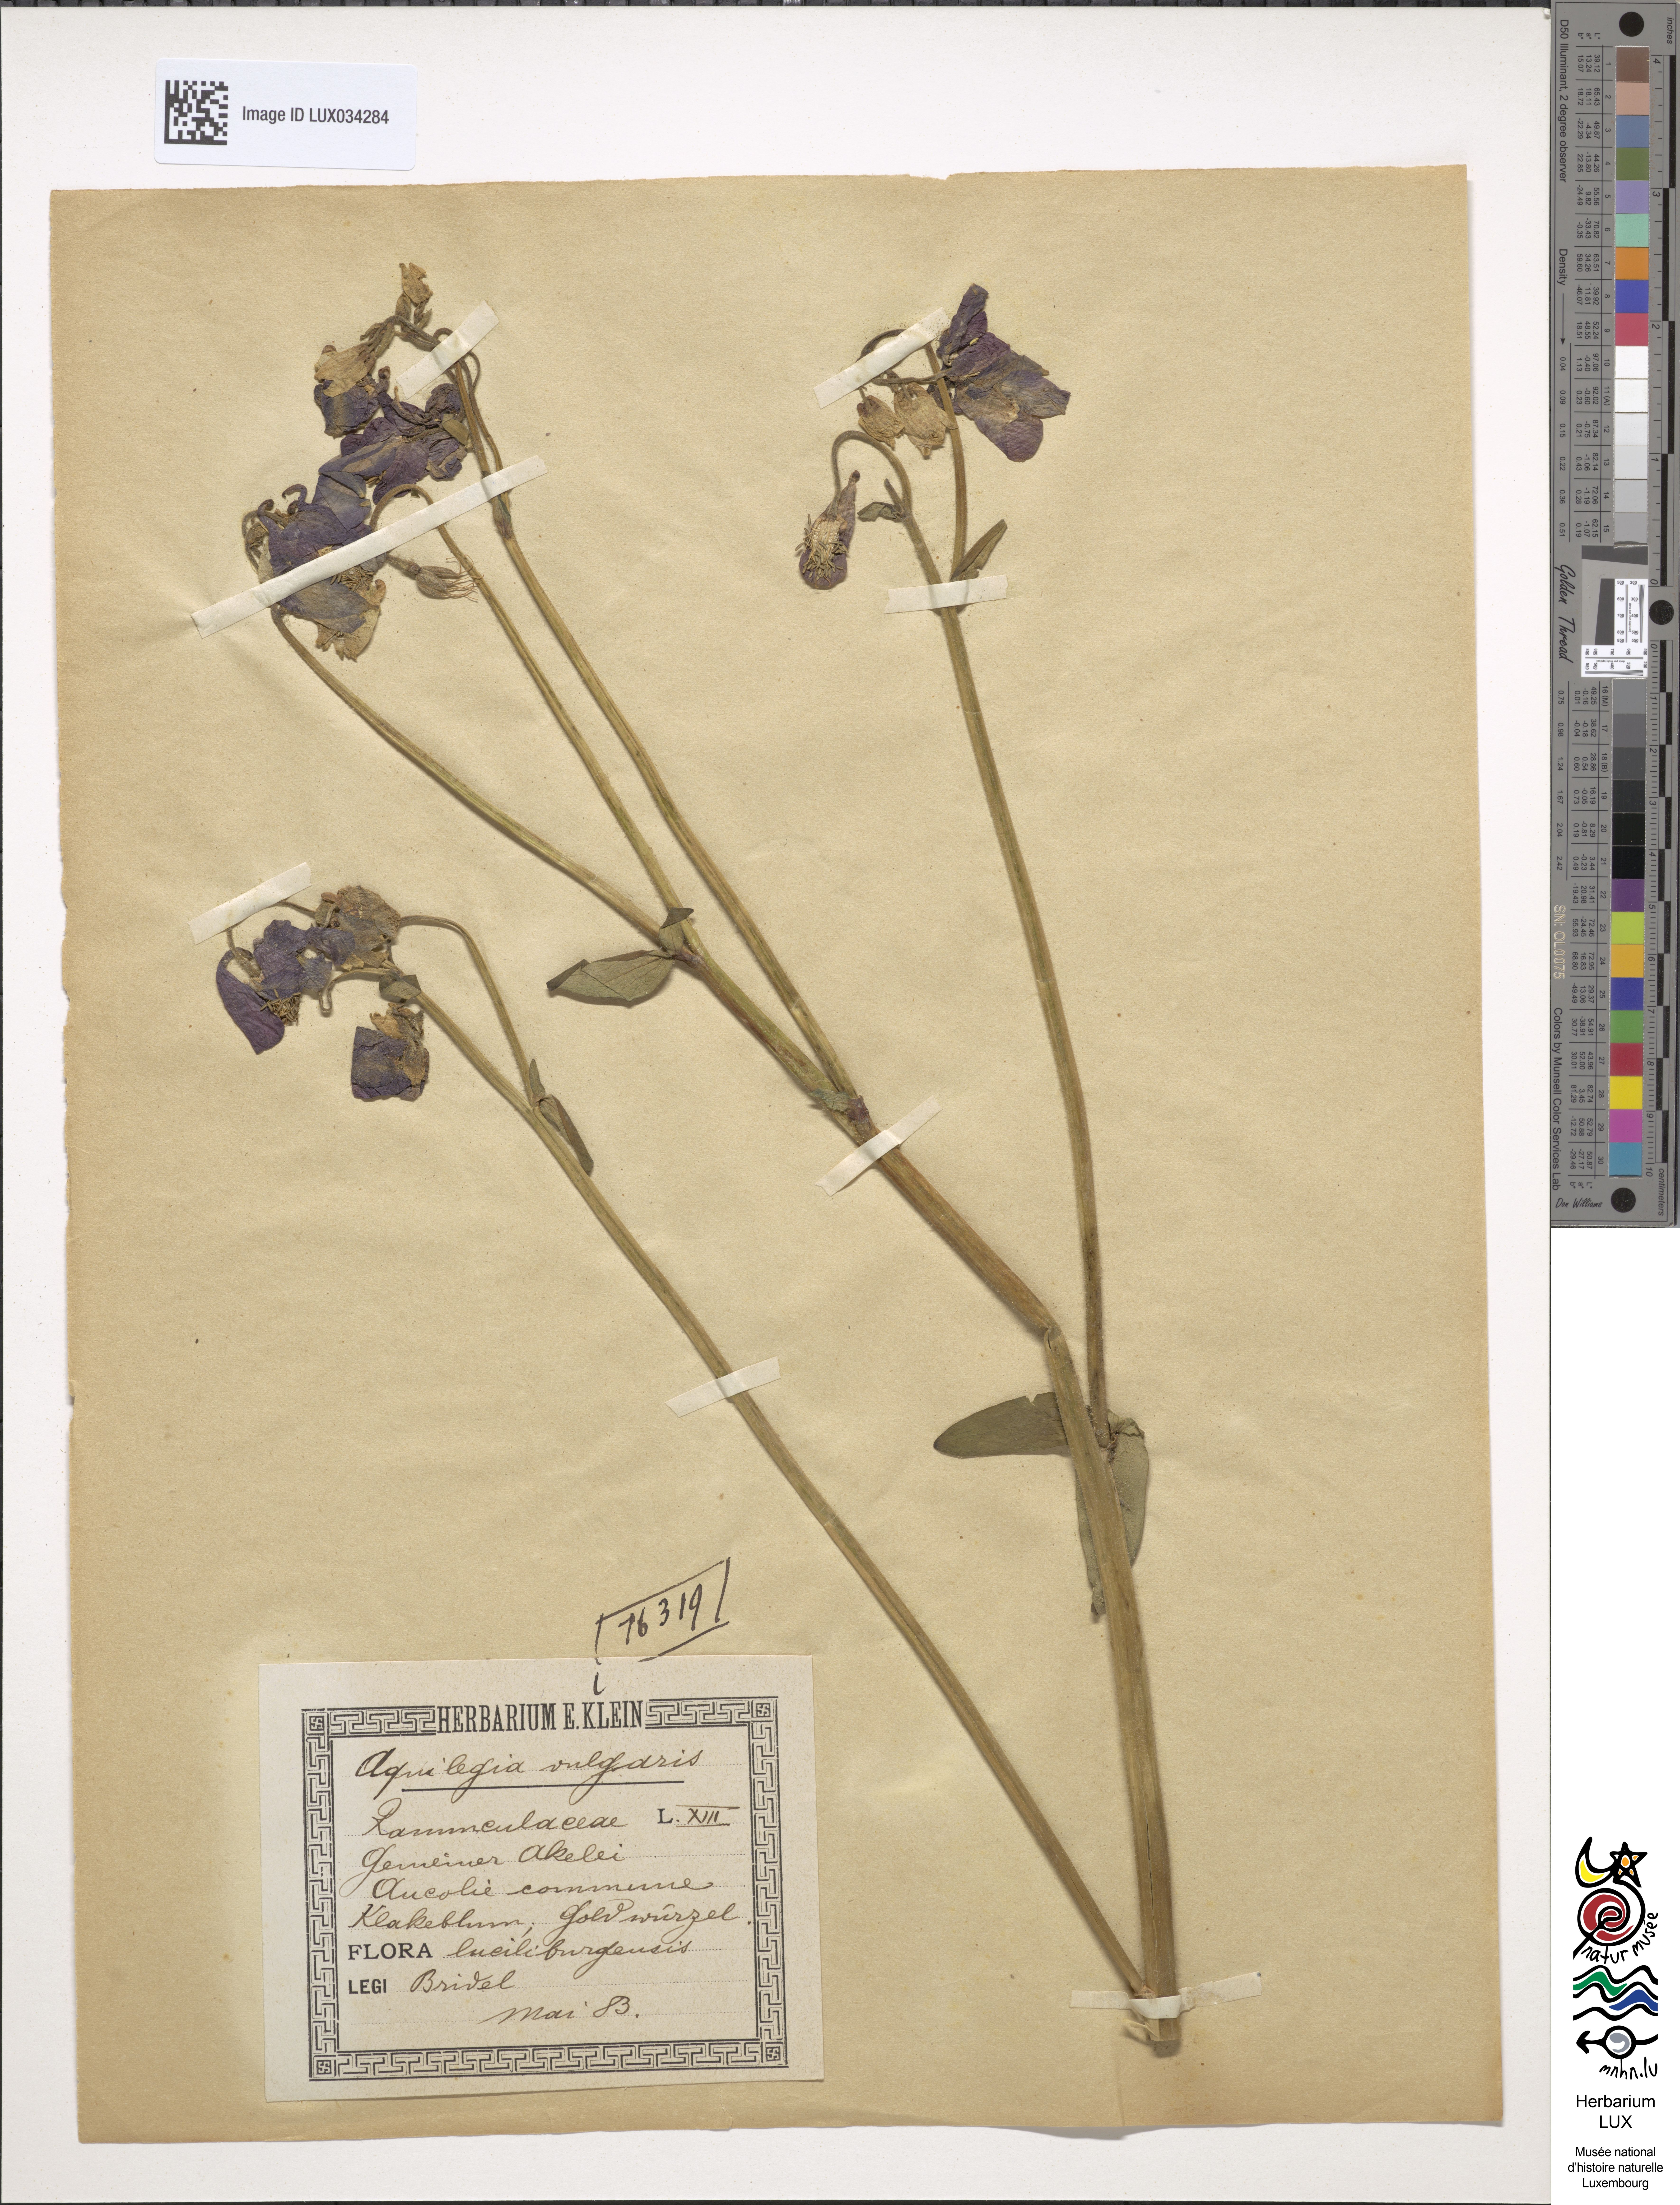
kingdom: Plantae
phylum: Tracheophyta
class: Magnoliopsida
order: Ranunculales
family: Ranunculaceae
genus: Aquilegia
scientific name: Aquilegia vulgaris
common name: Columbine
